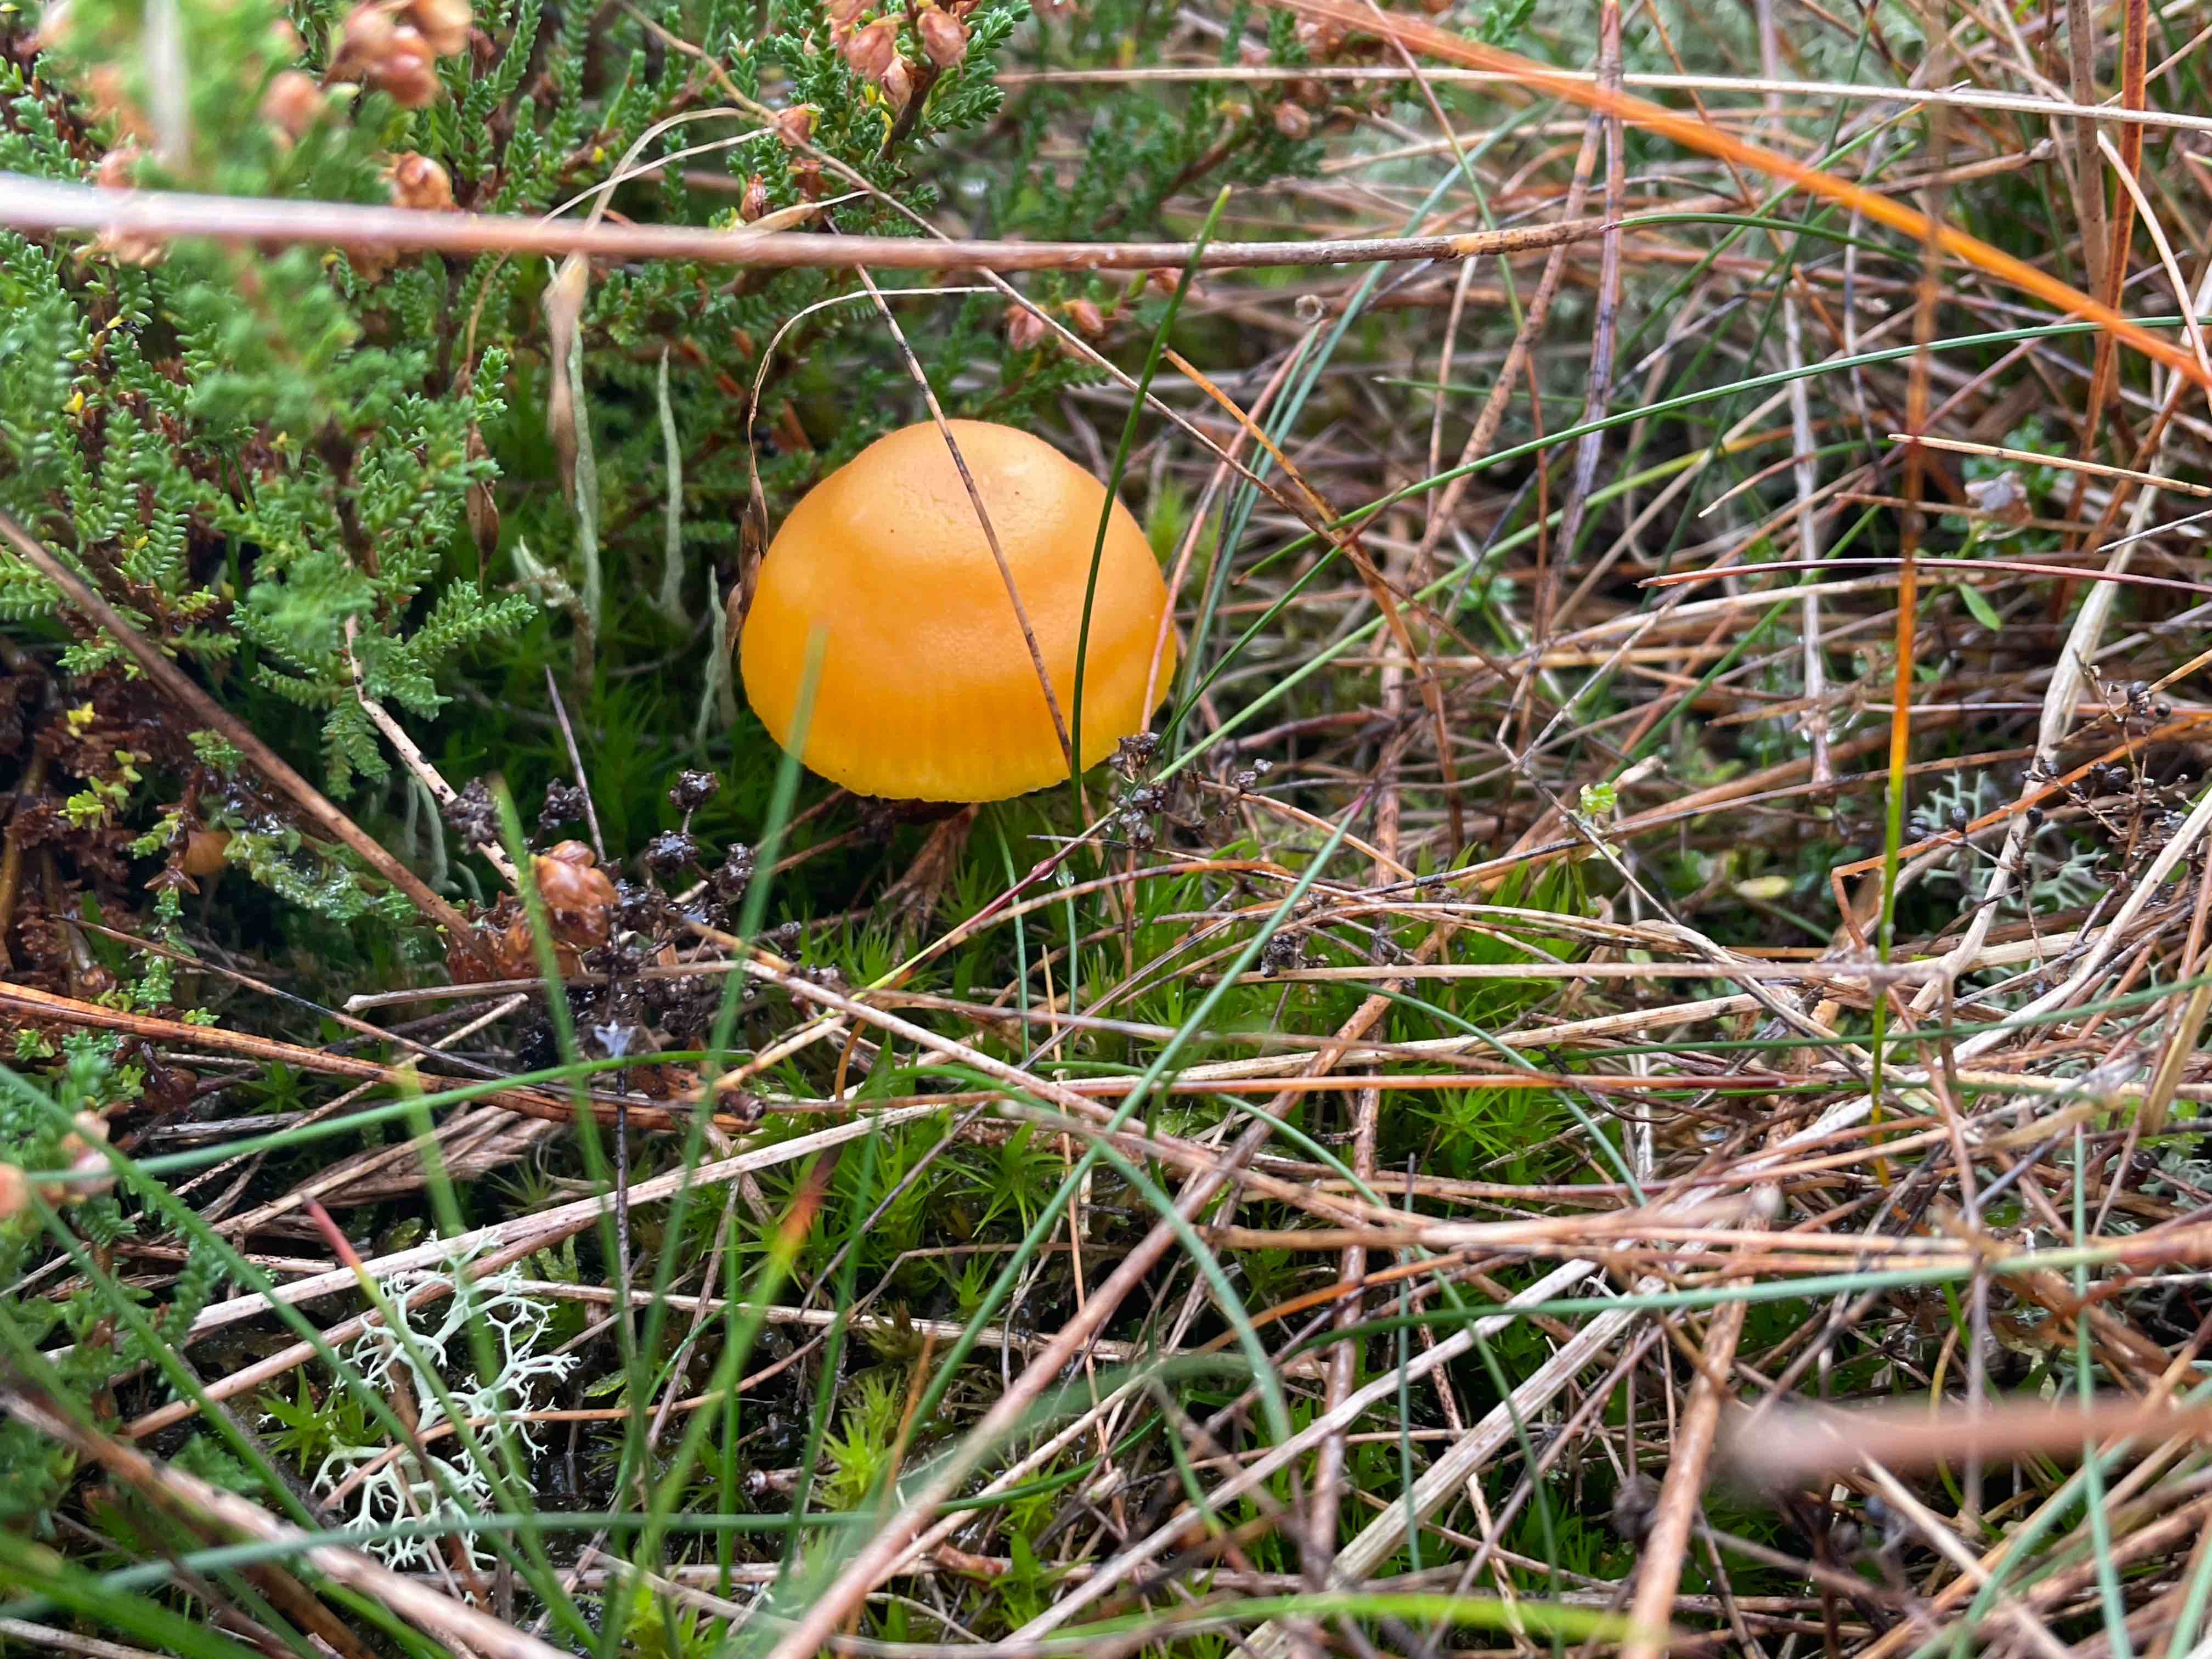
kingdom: Fungi
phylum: Basidiomycota
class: Agaricomycetes
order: Agaricales
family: Hygrophoraceae
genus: Hygrocybe
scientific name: Hygrocybe miniata
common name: mønje-vokshat
